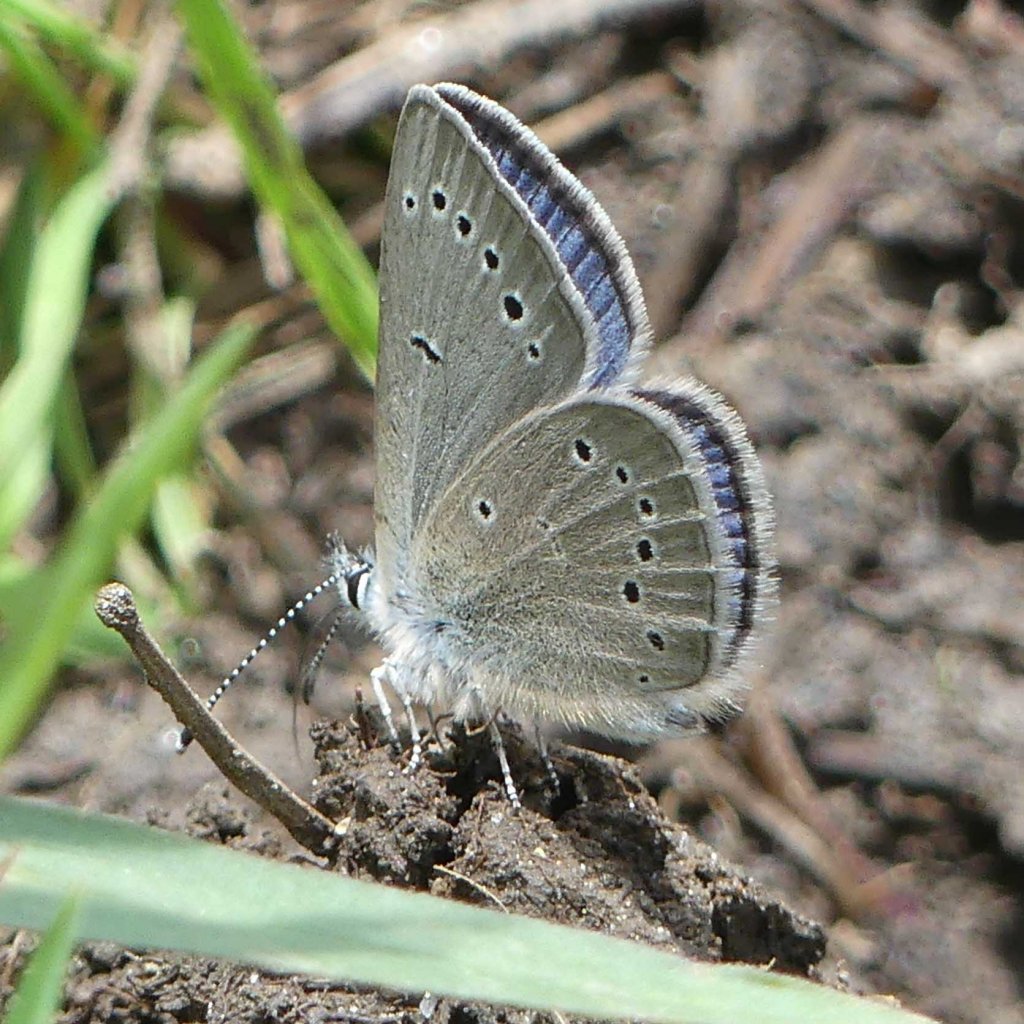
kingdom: Animalia
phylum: Arthropoda
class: Insecta
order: Lepidoptera
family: Lycaenidae
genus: Glaucopsyche
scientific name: Glaucopsyche lygdamus
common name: Silvery Blue
